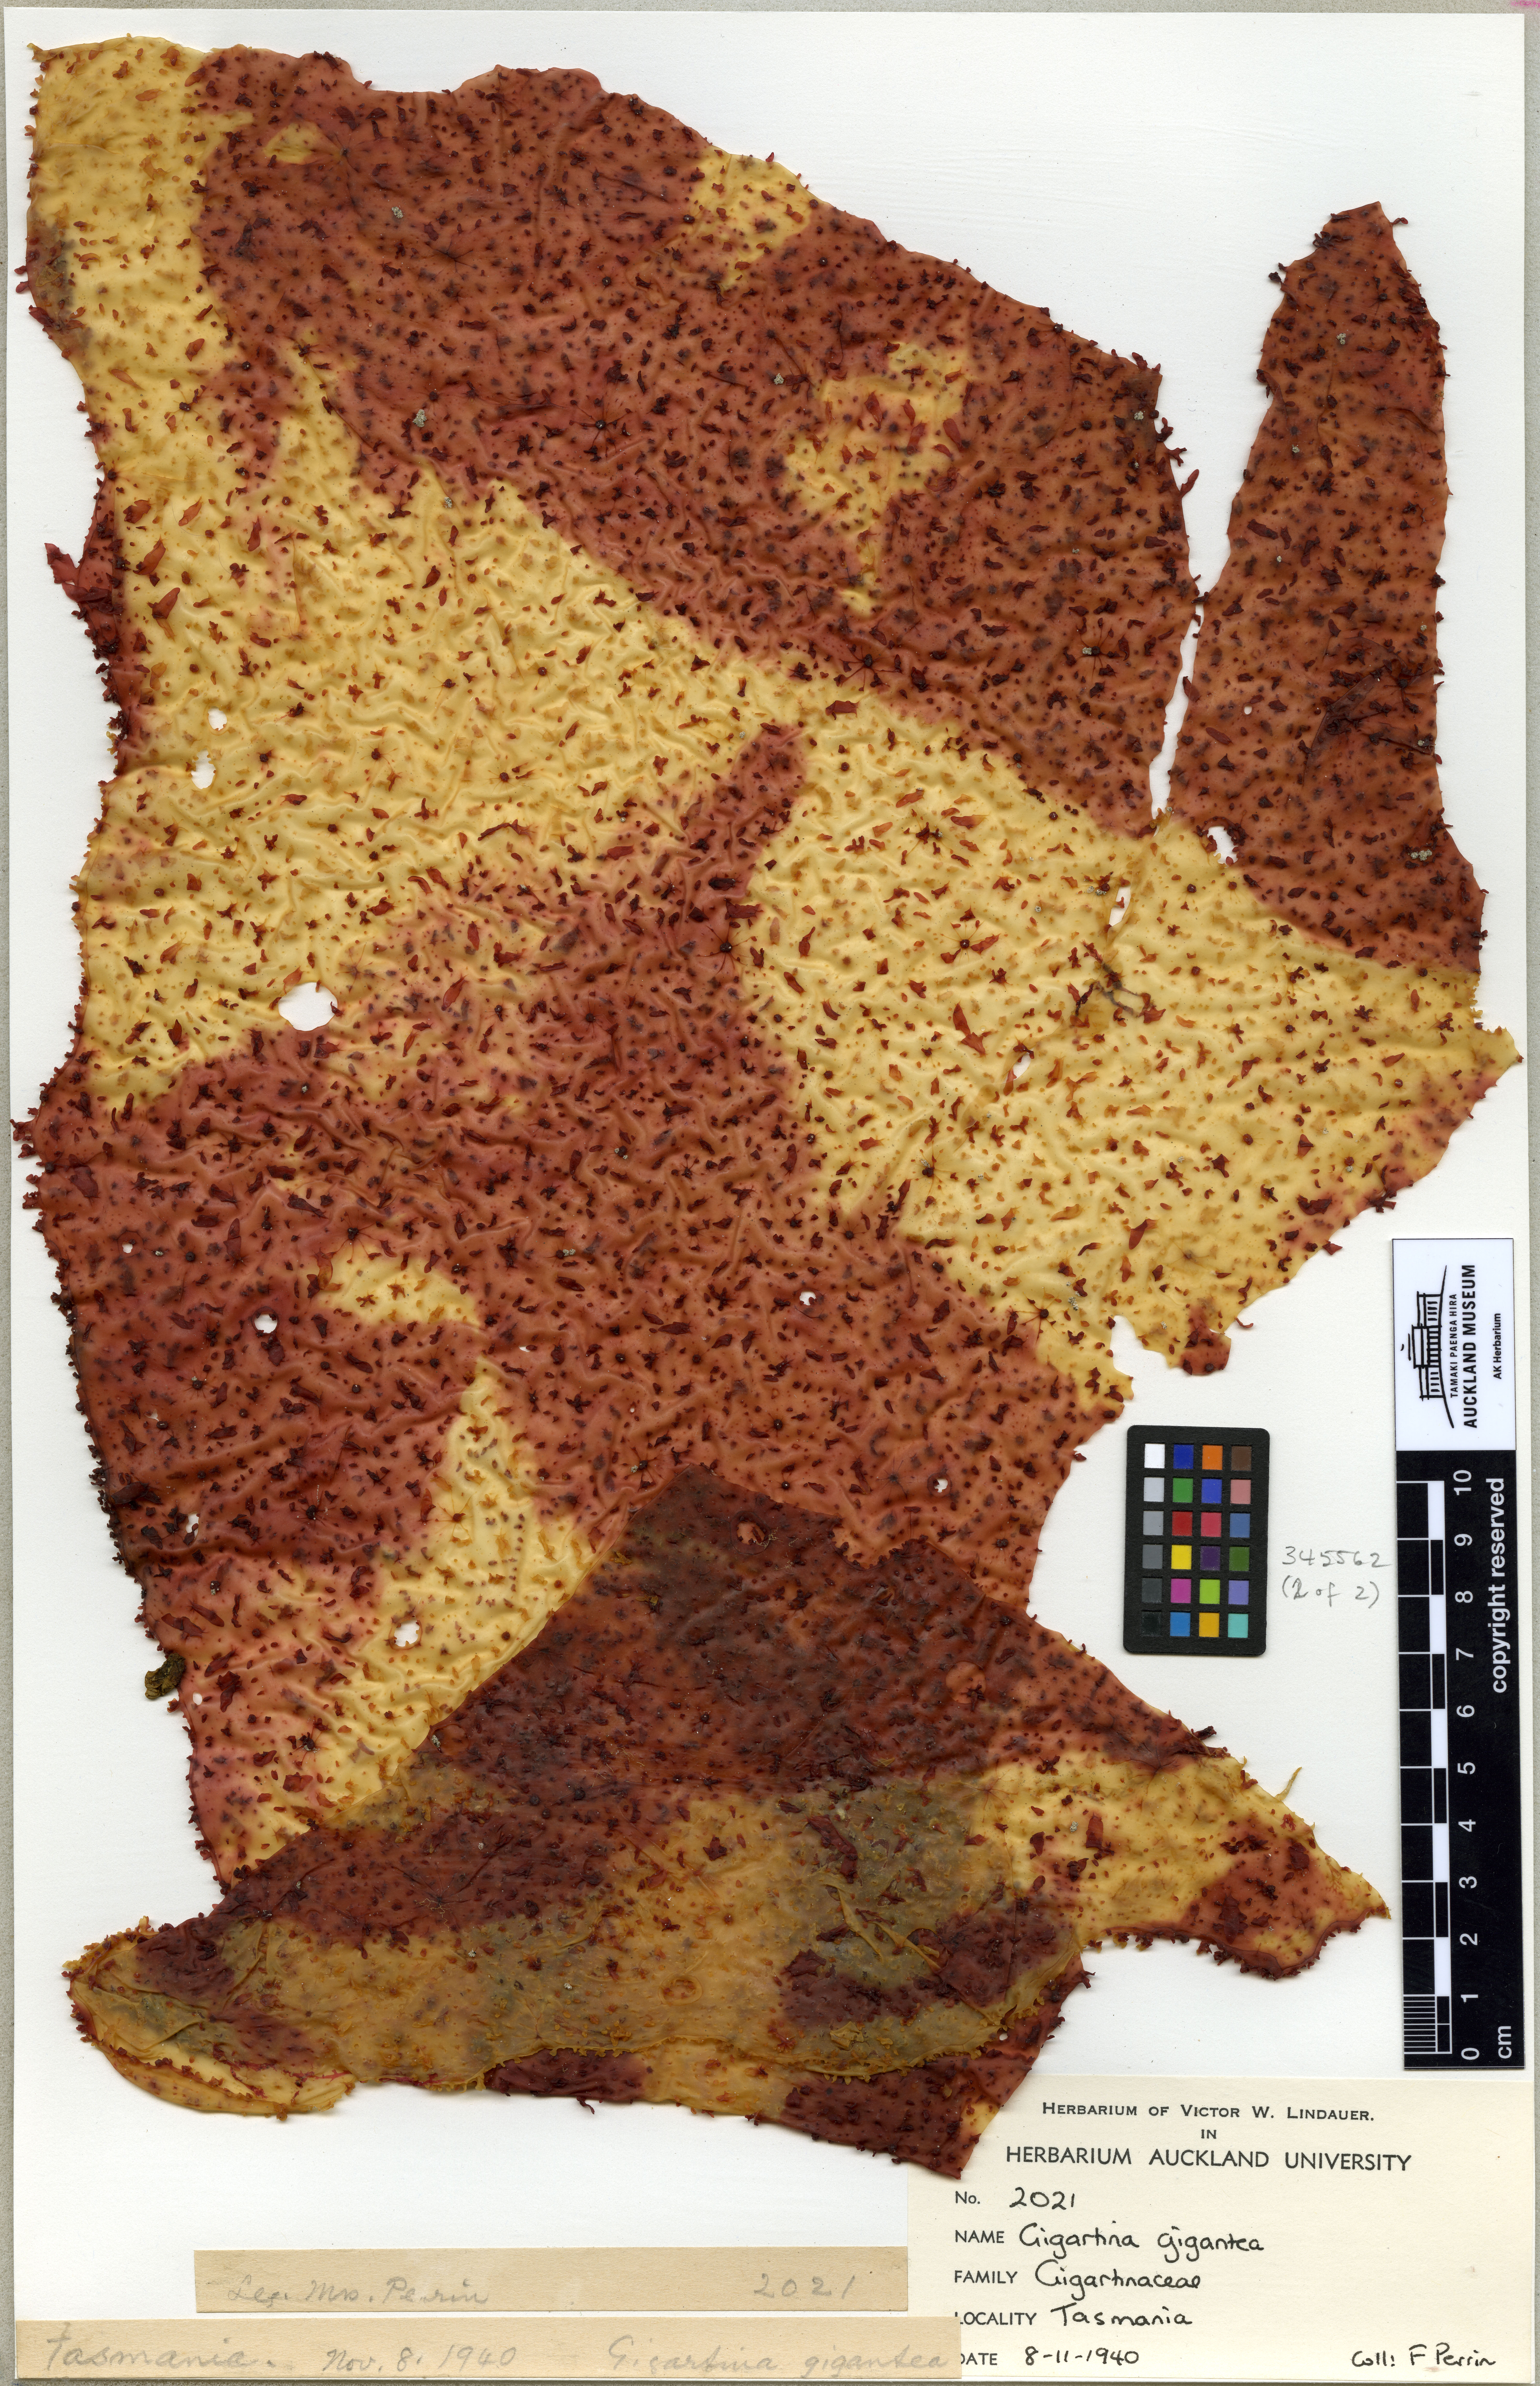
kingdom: Plantae
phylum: Rhodophyta
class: Florideophyceae
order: Gigartinales
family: Gigartinaceae
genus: Sarcothalia
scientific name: Sarcothalia radula
